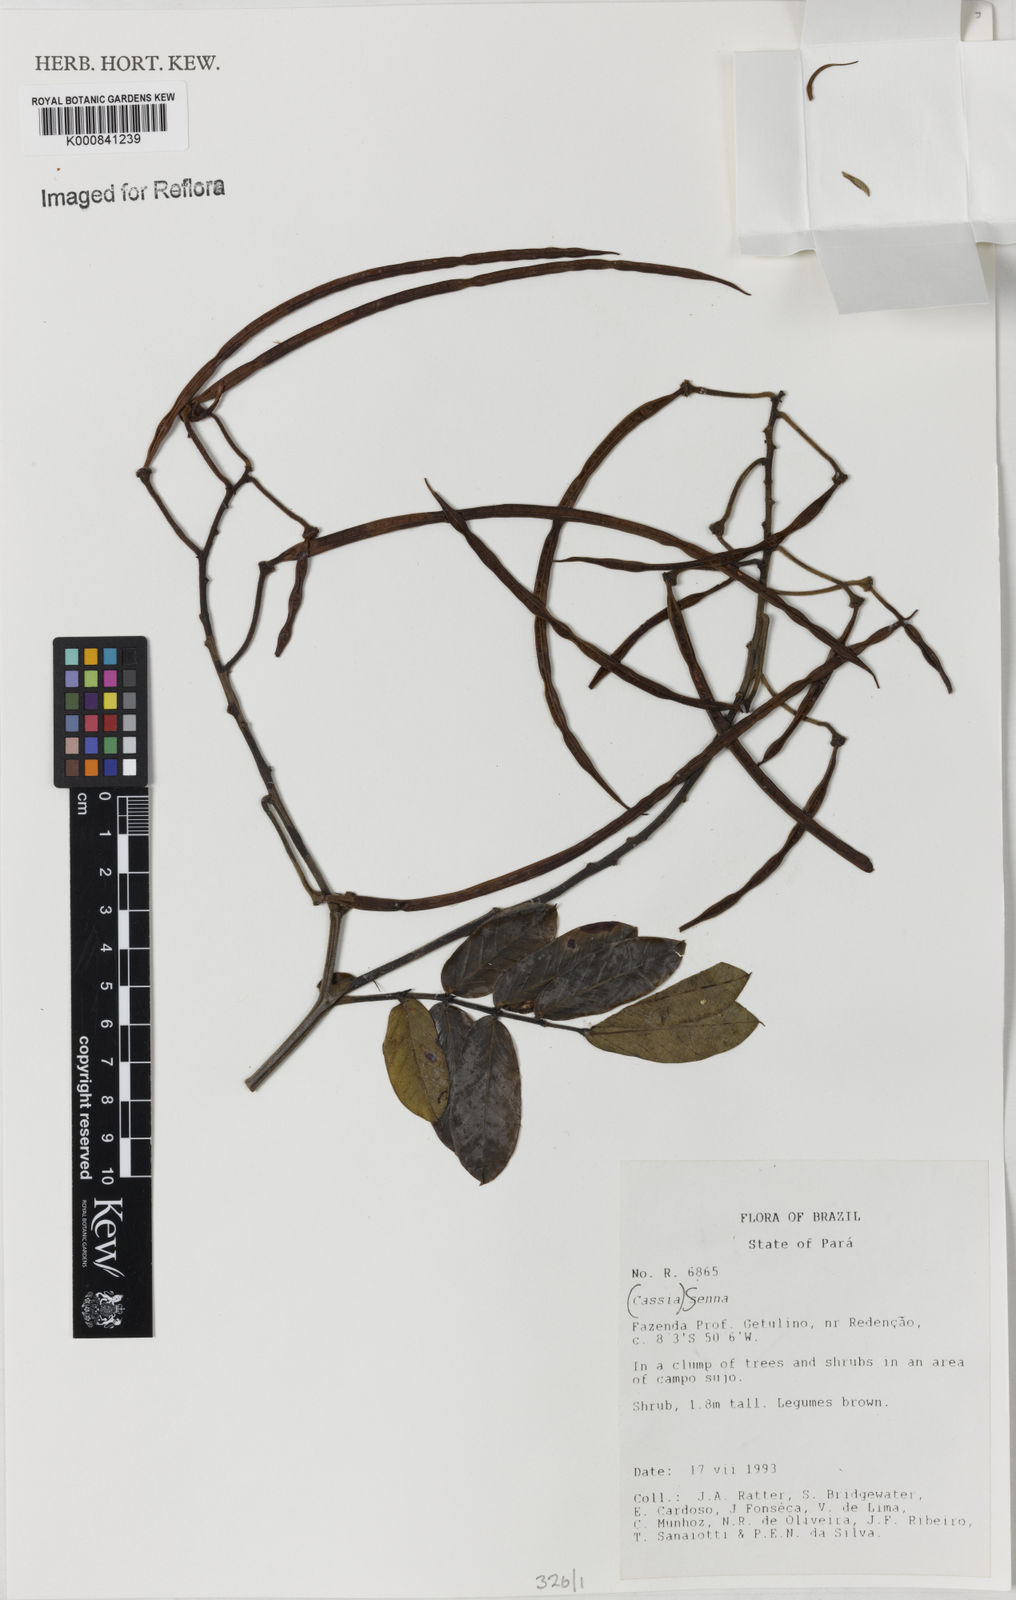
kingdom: Plantae
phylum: Tracheophyta
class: Magnoliopsida
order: Fabales
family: Fabaceae
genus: Senna
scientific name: Senna
